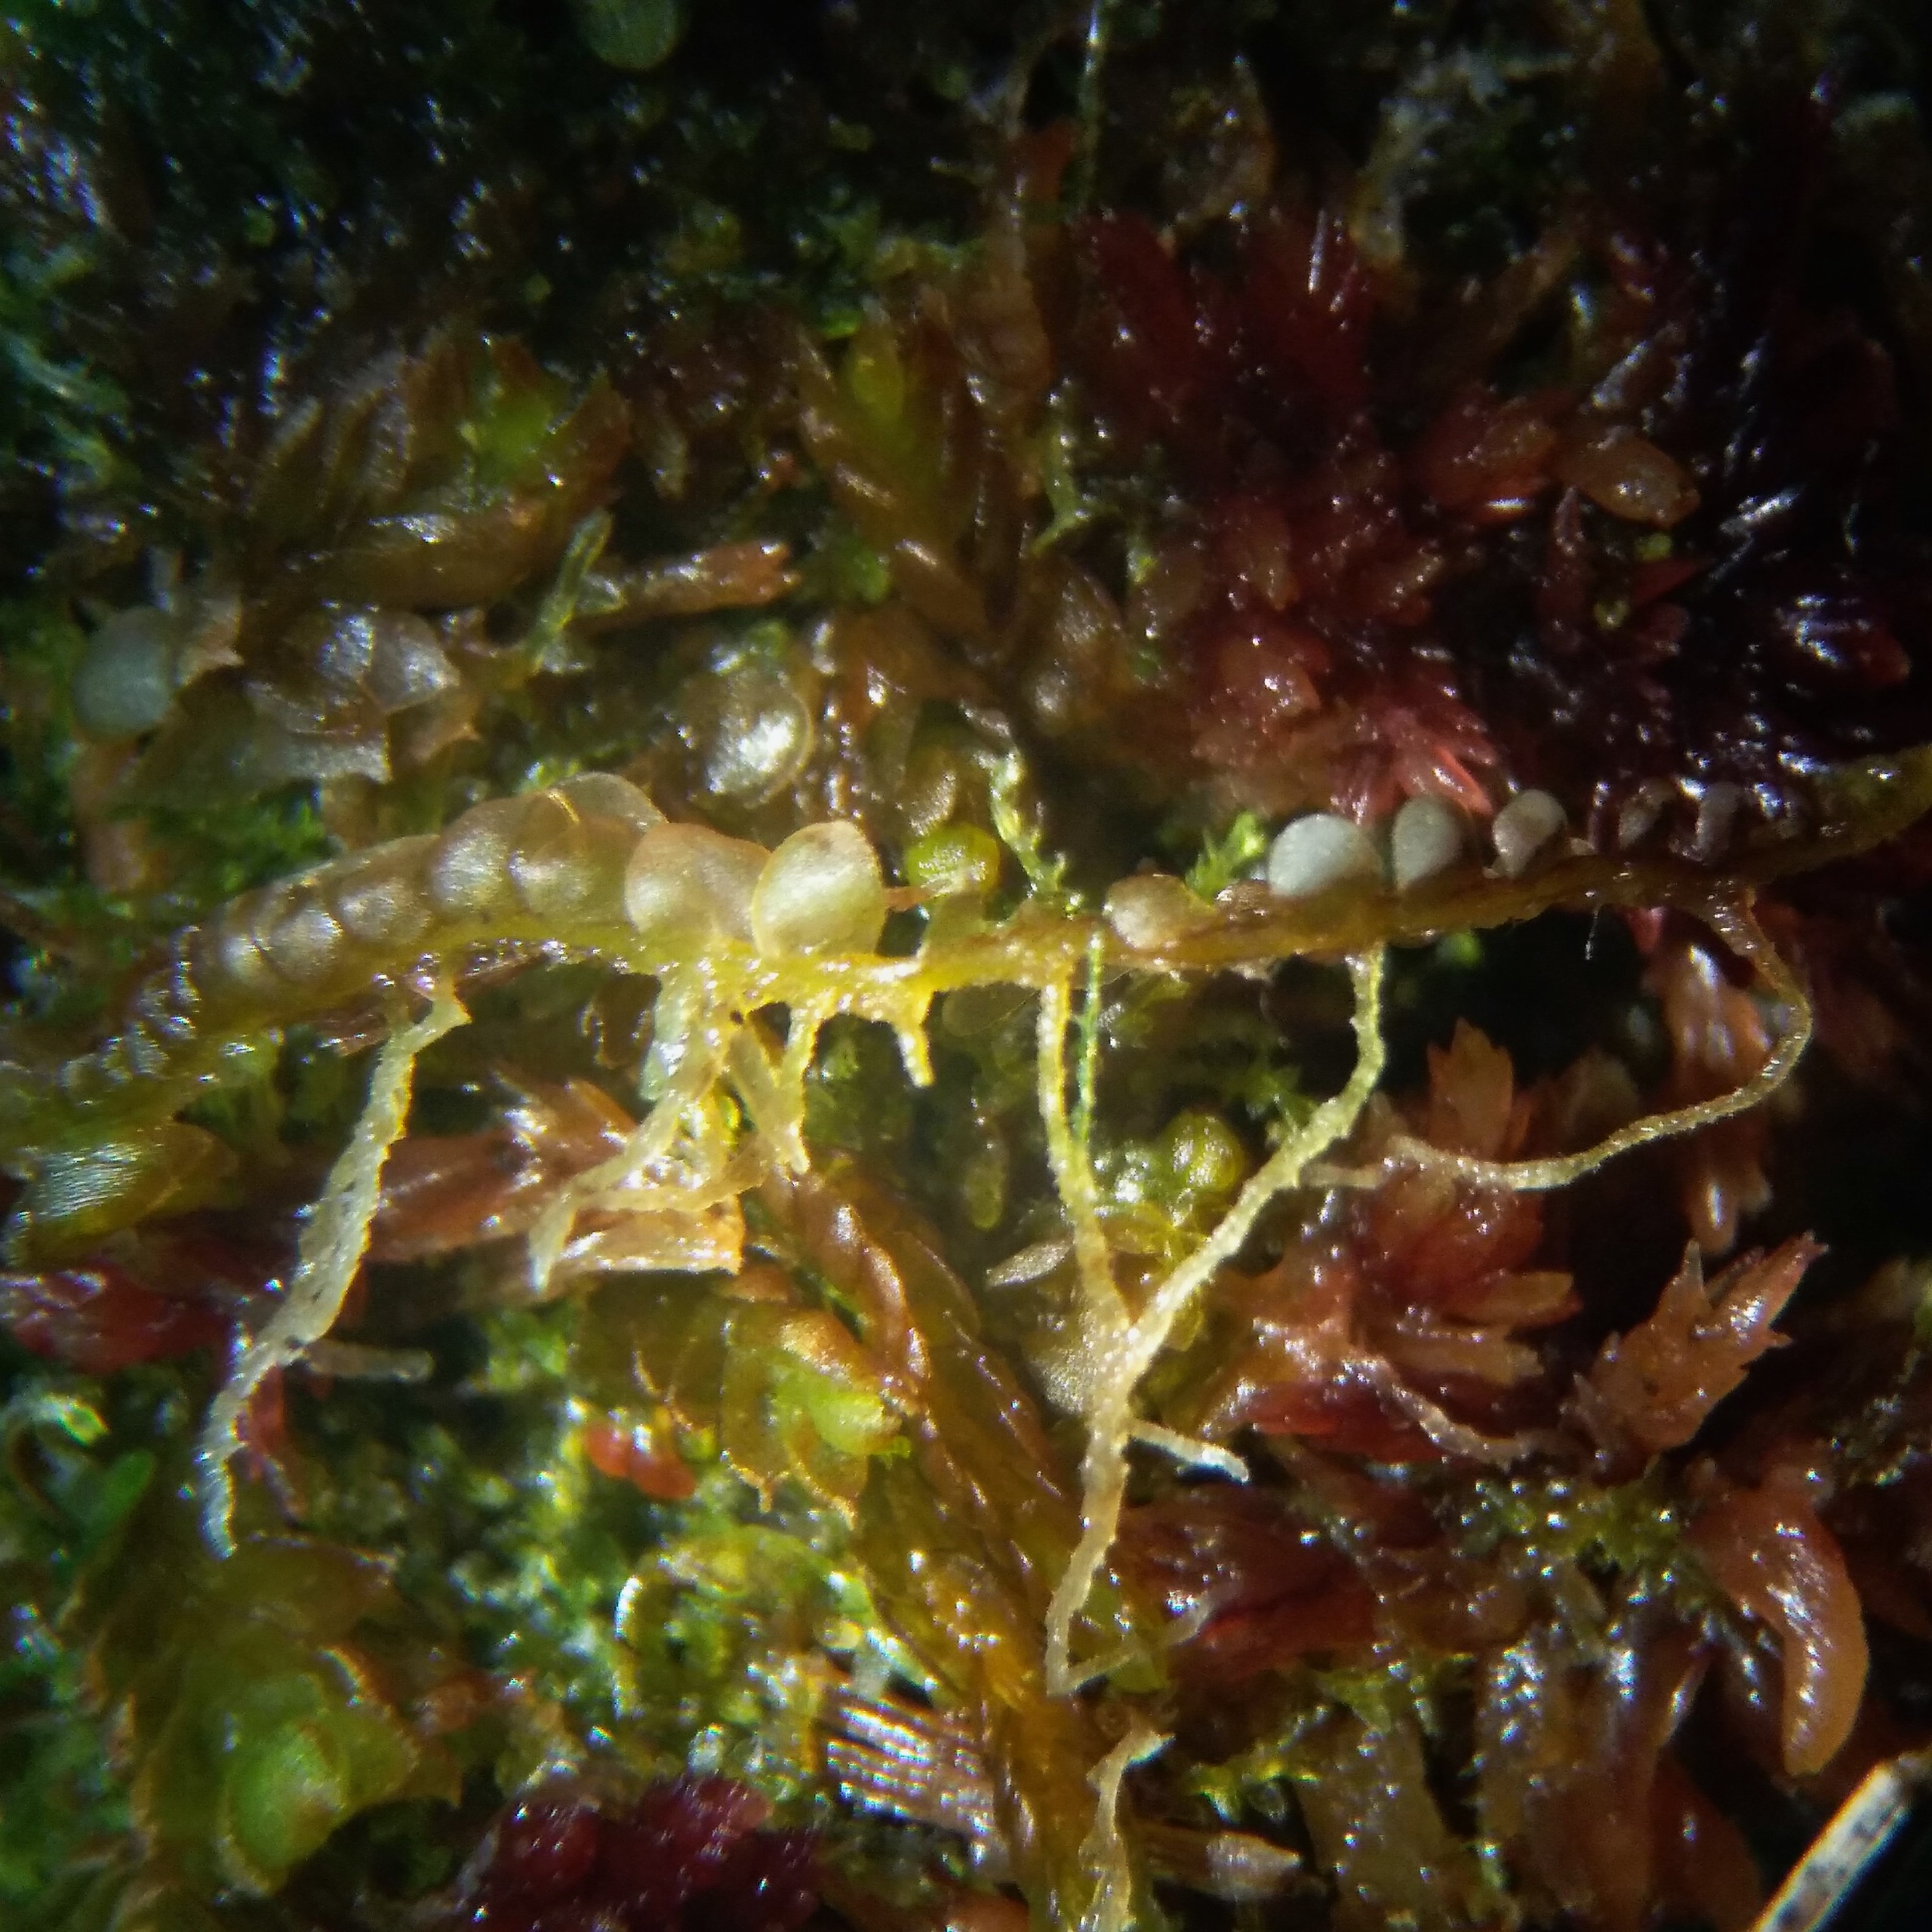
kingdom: Plantae
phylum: Marchantiophyta
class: Jungermanniopsida
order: Jungermanniales
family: Cephaloziaceae
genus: Odontoschisma
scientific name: Odontoschisma sphagni
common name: Almindelig flagelmos
